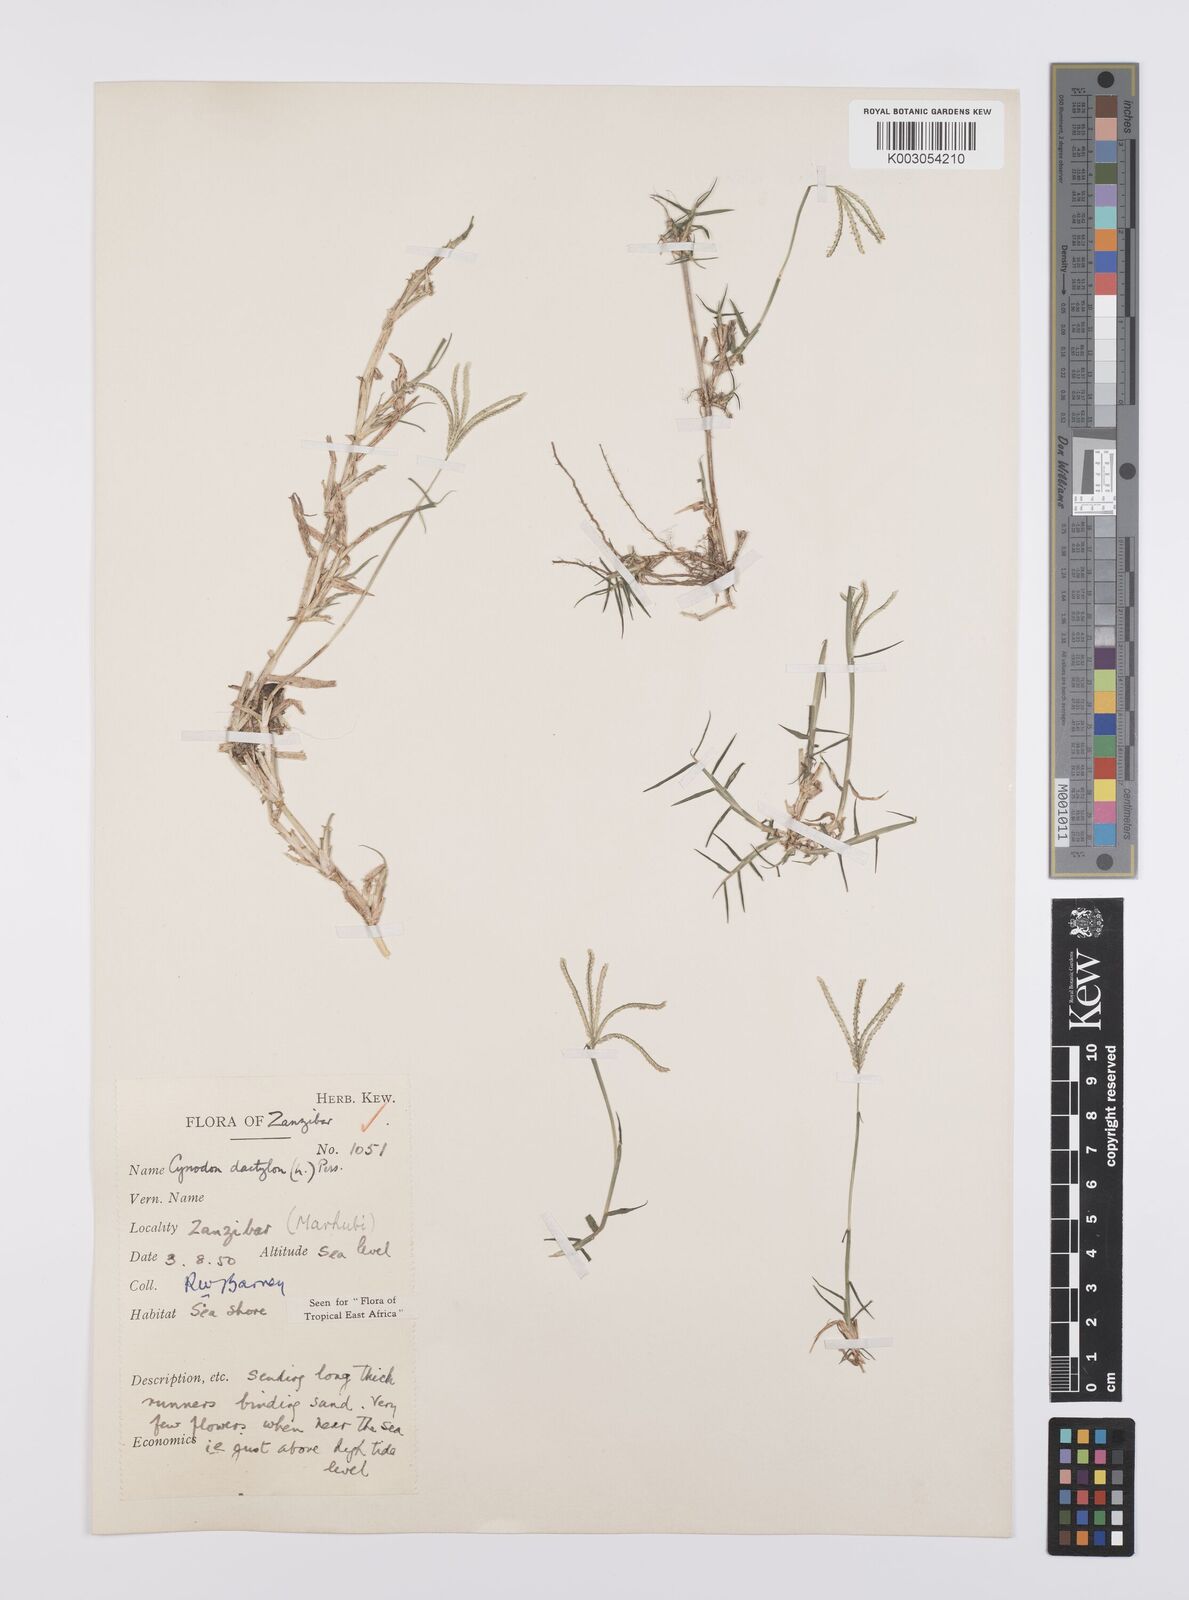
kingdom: Plantae
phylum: Tracheophyta
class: Liliopsida
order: Poales
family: Poaceae
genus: Cynodon
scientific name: Cynodon dactylon
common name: Bermuda grass
